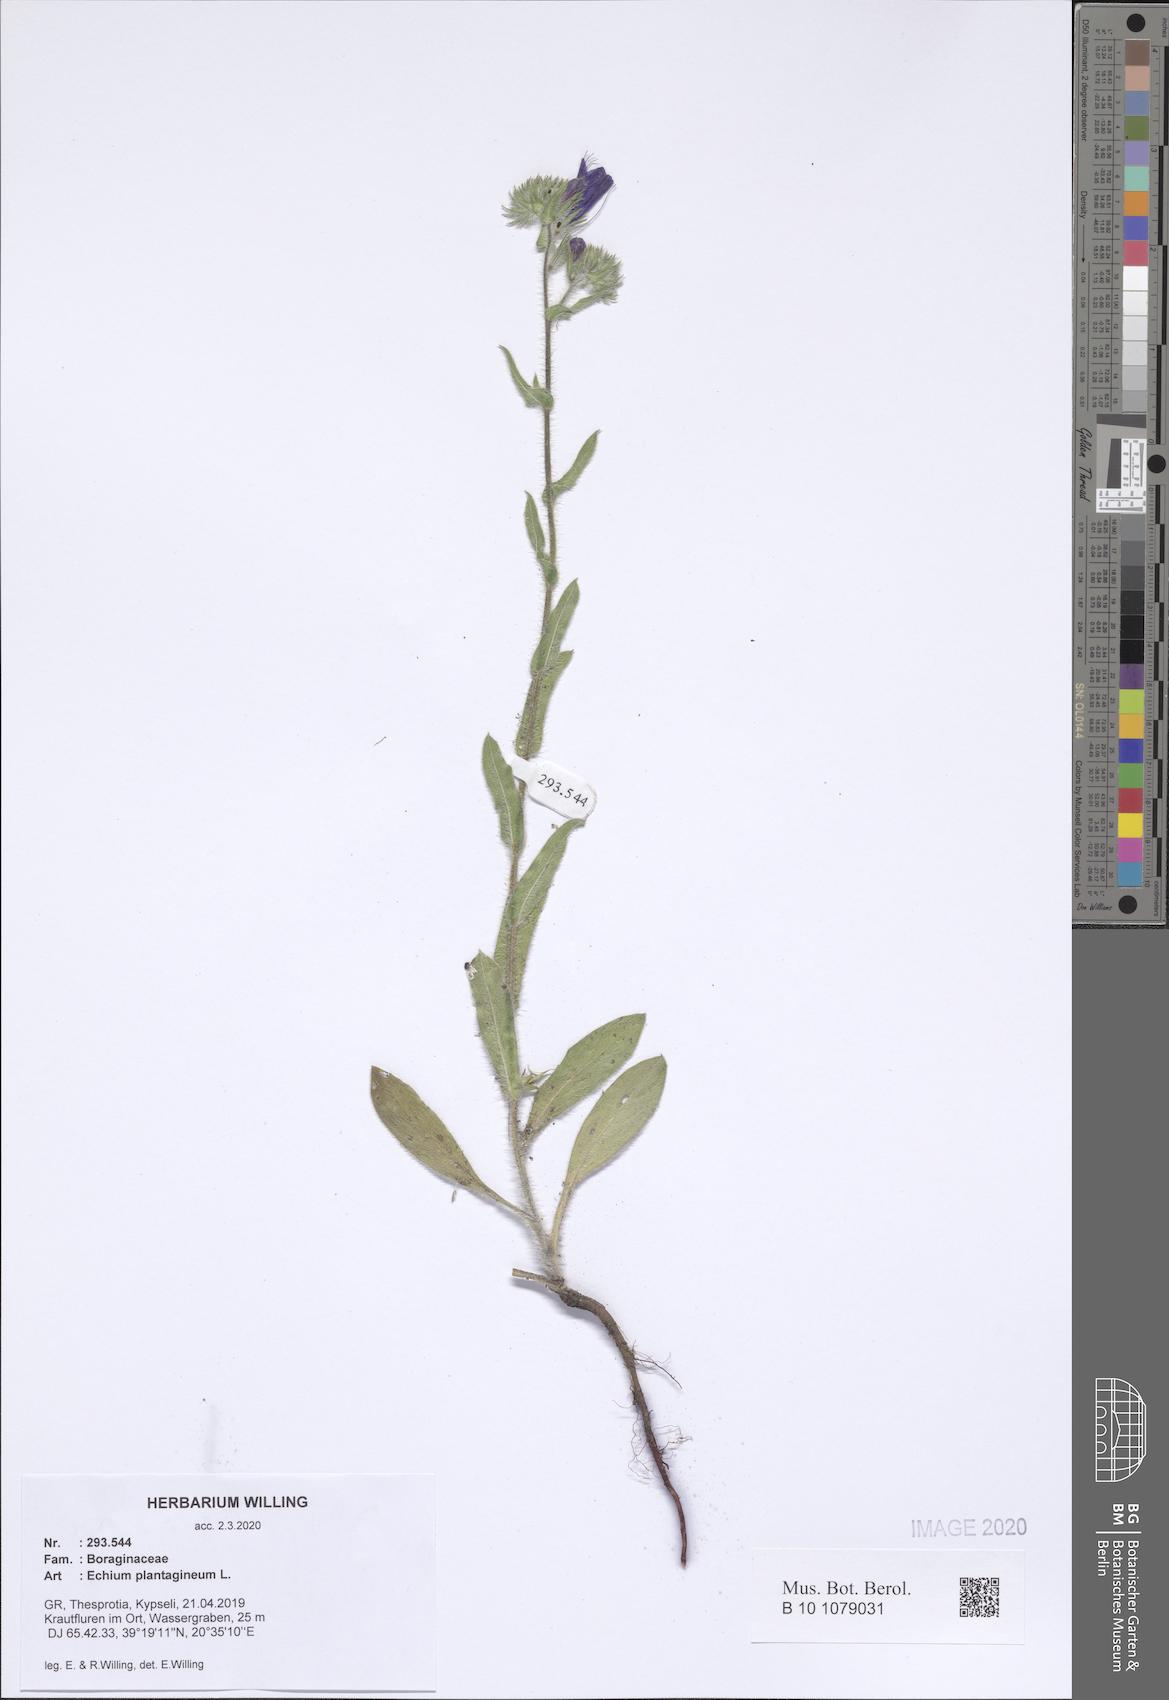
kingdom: Plantae
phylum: Tracheophyta
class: Magnoliopsida
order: Boraginales
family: Boraginaceae
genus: Echium
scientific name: Echium plantagineum
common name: Purple viper's-bugloss
